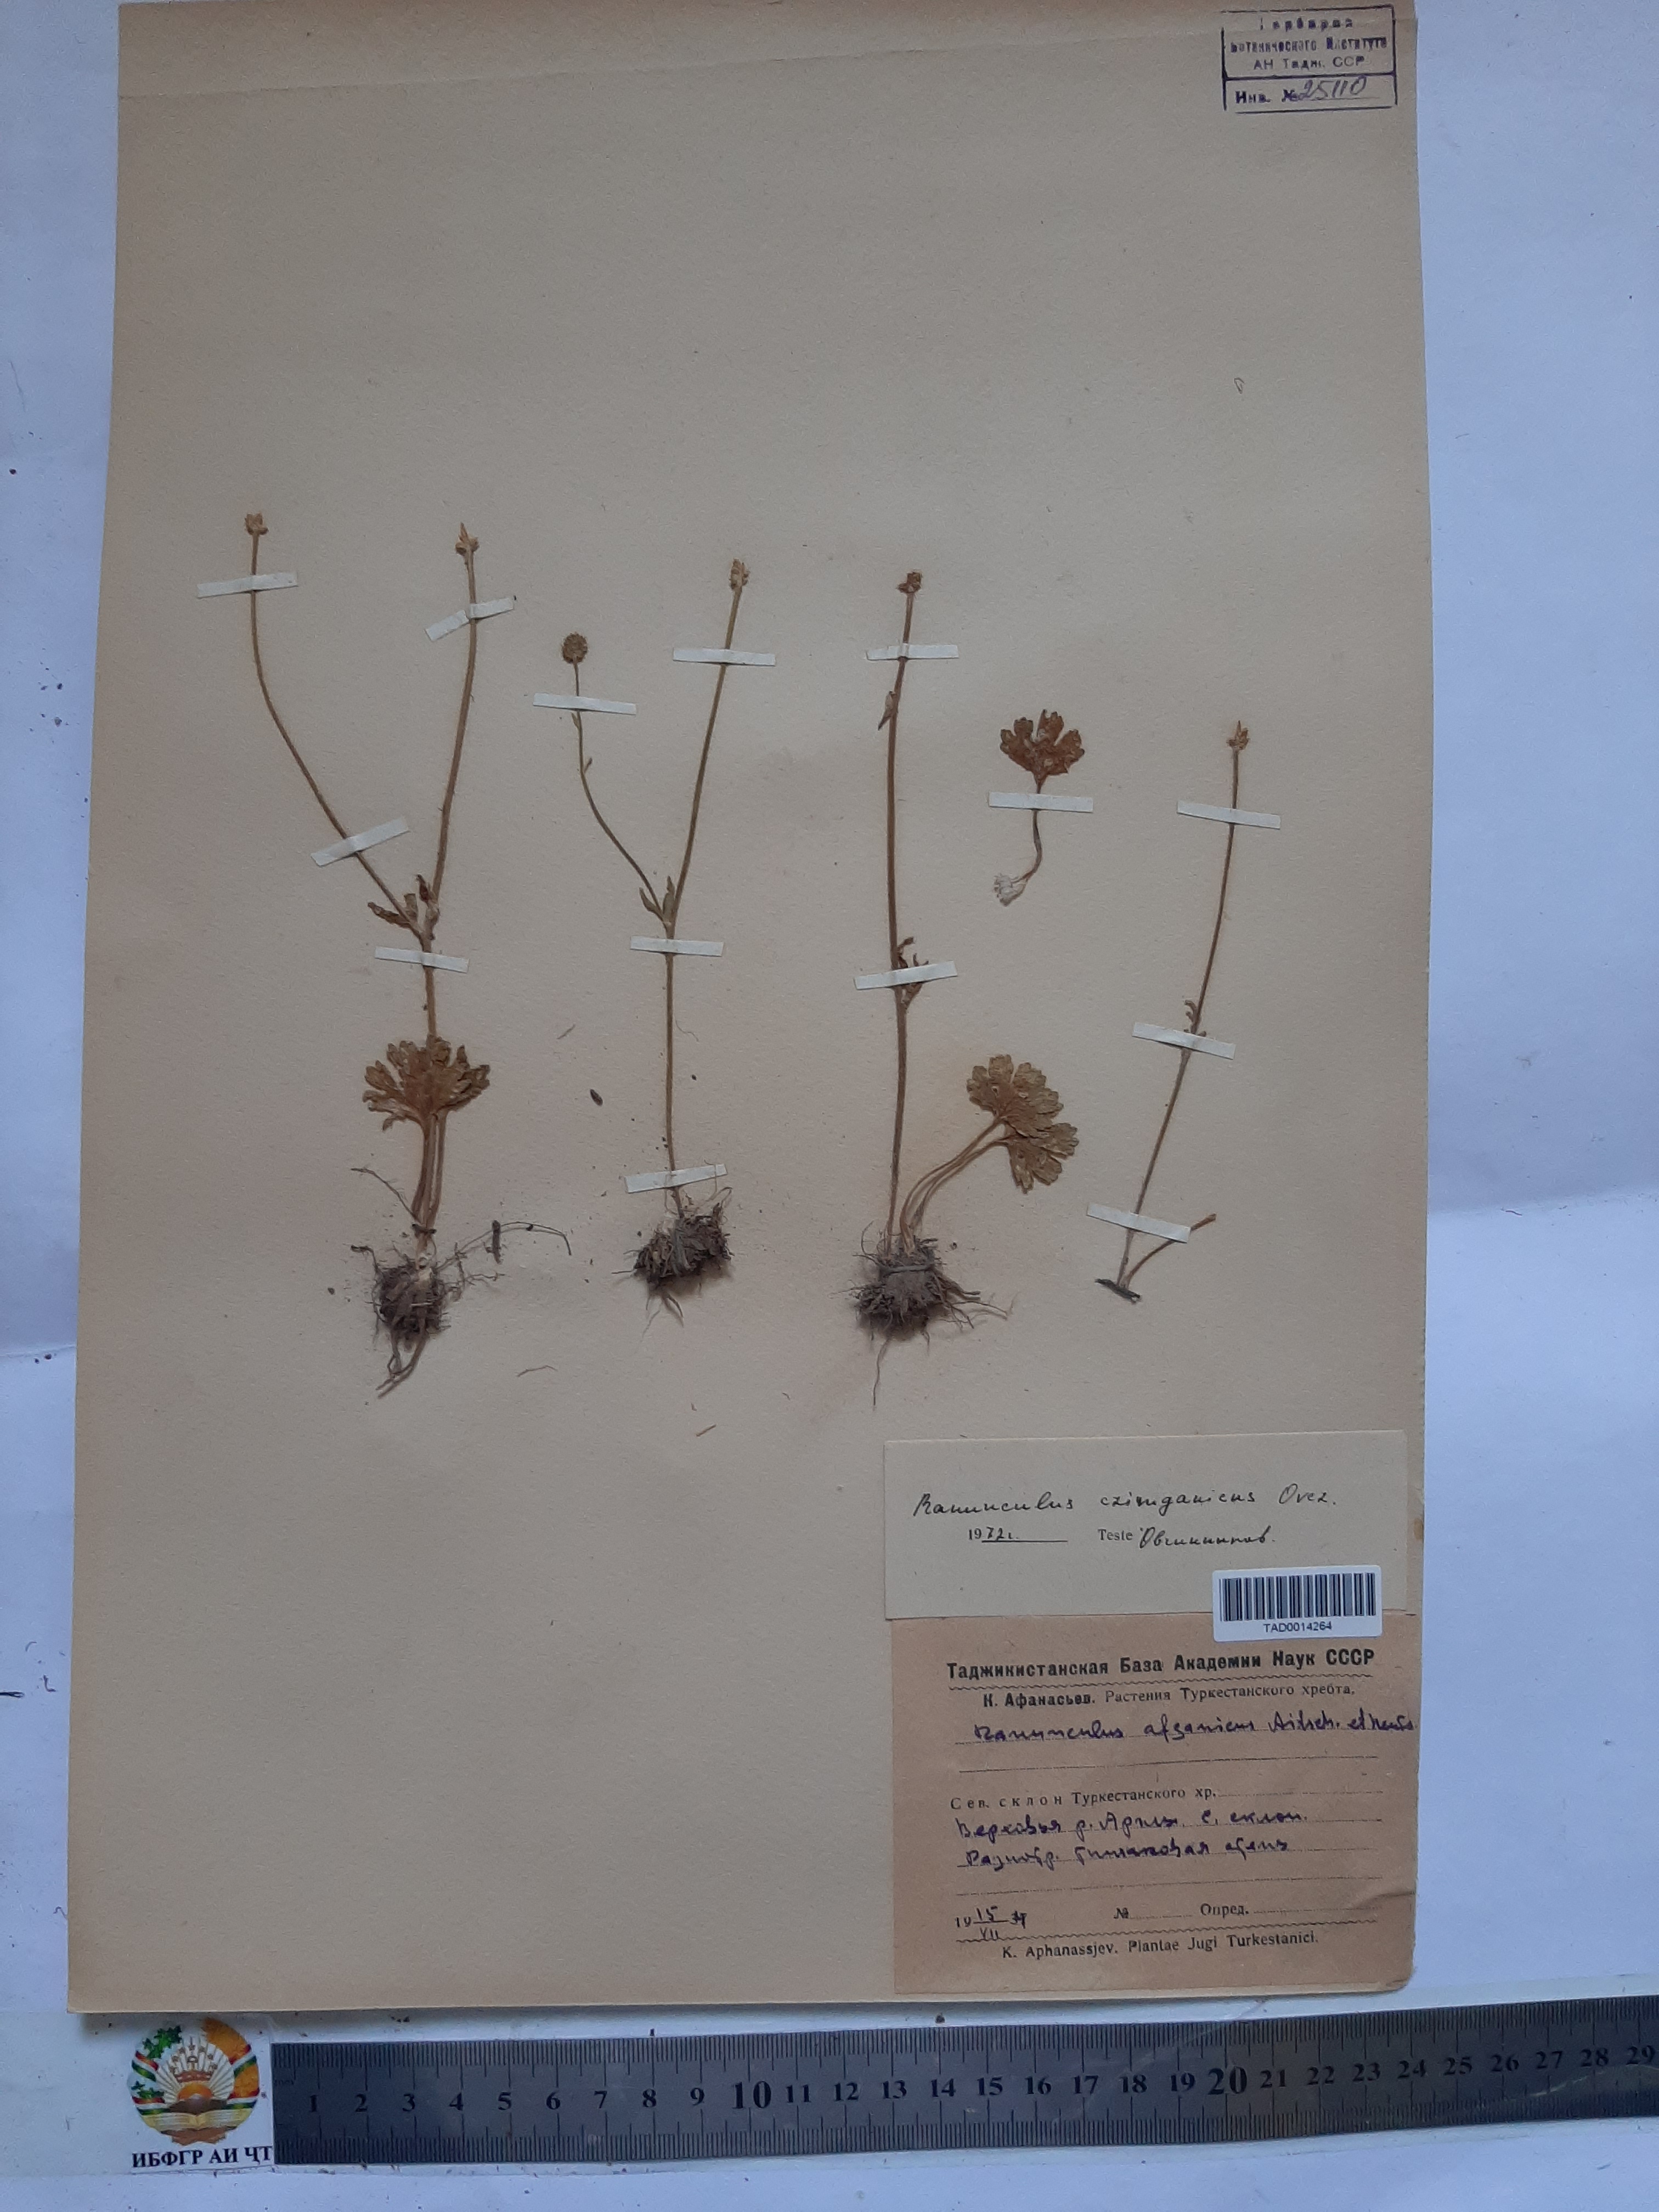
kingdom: Plantae
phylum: Tracheophyta
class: Magnoliopsida
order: Ranunculales
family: Ranunculaceae
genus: Ranunculus
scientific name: Ranunculus czimganicus
